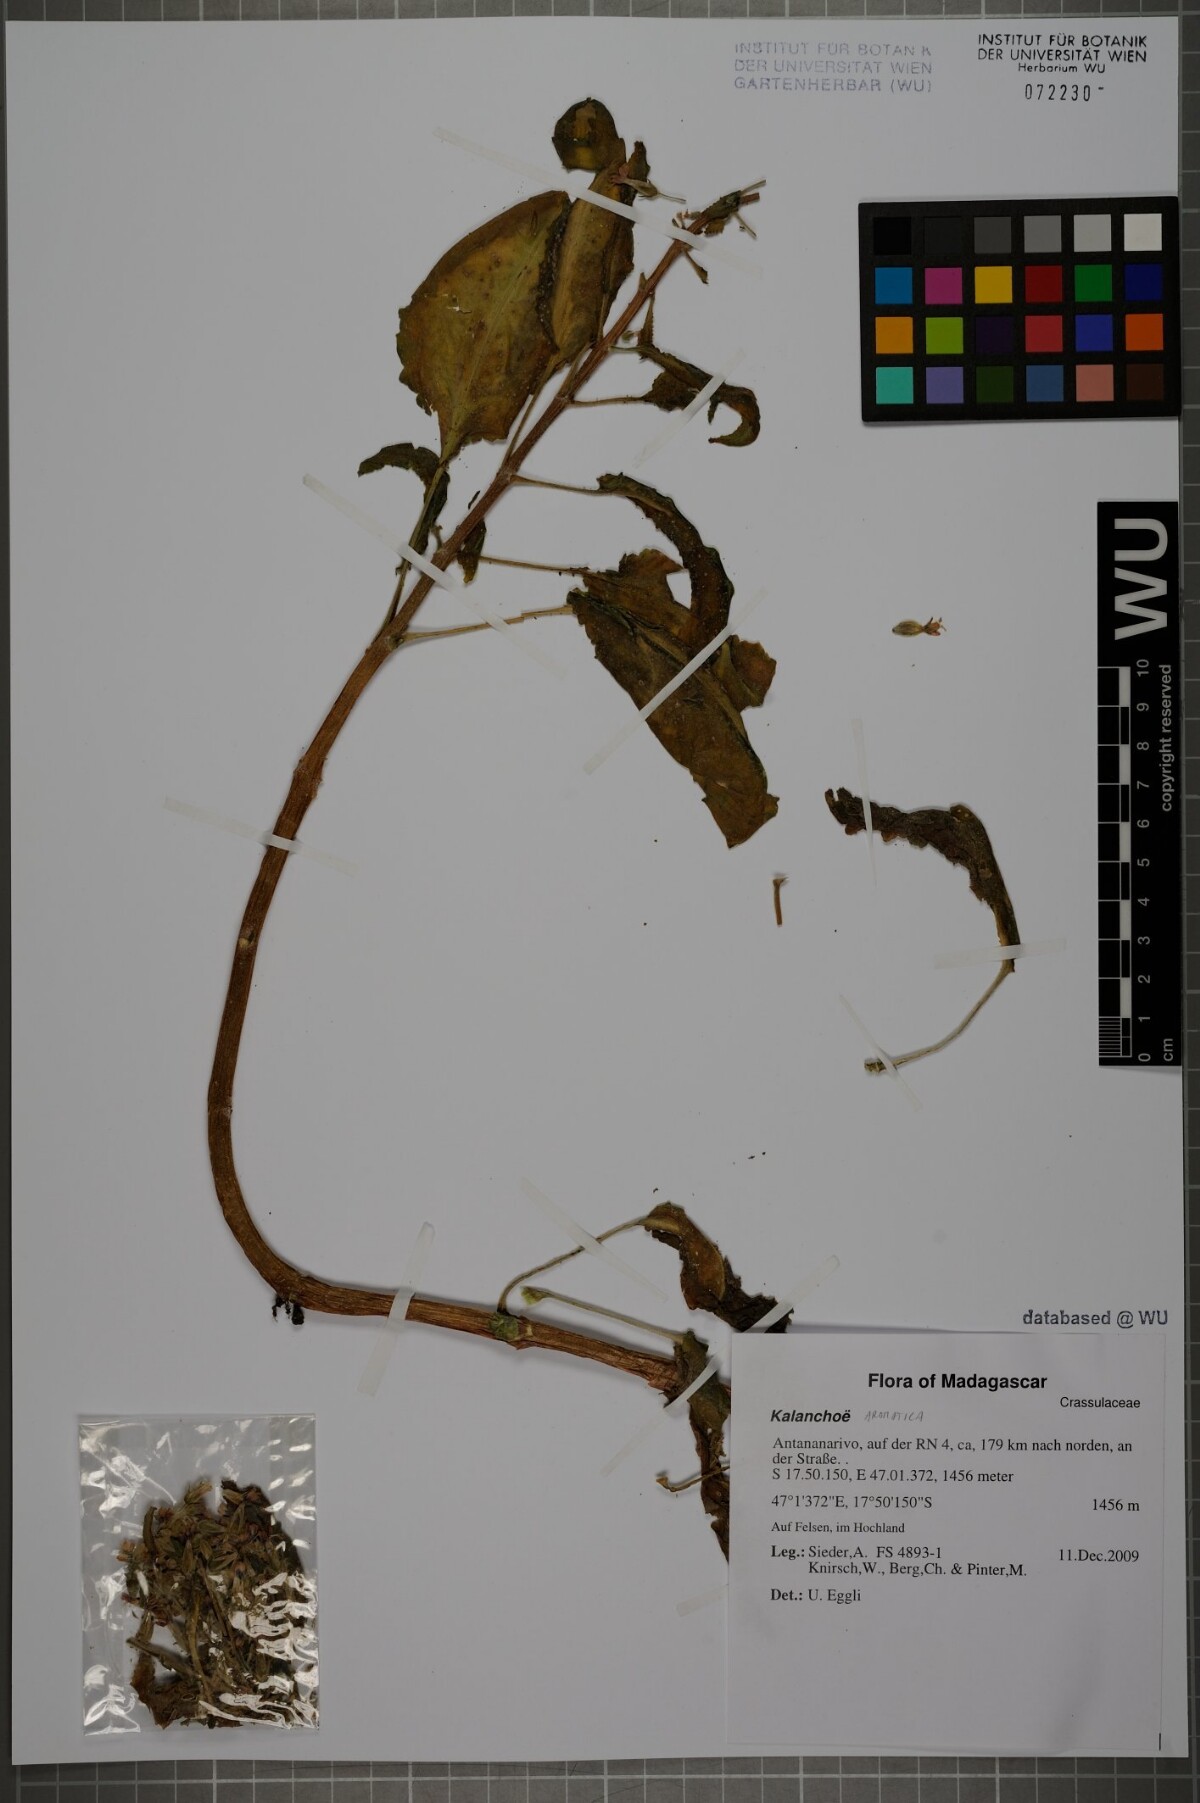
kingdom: Plantae
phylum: Tracheophyta
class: Magnoliopsida
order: Saxifragales
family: Crassulaceae
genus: Kalanchoe
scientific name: Kalanchoe aromatica
